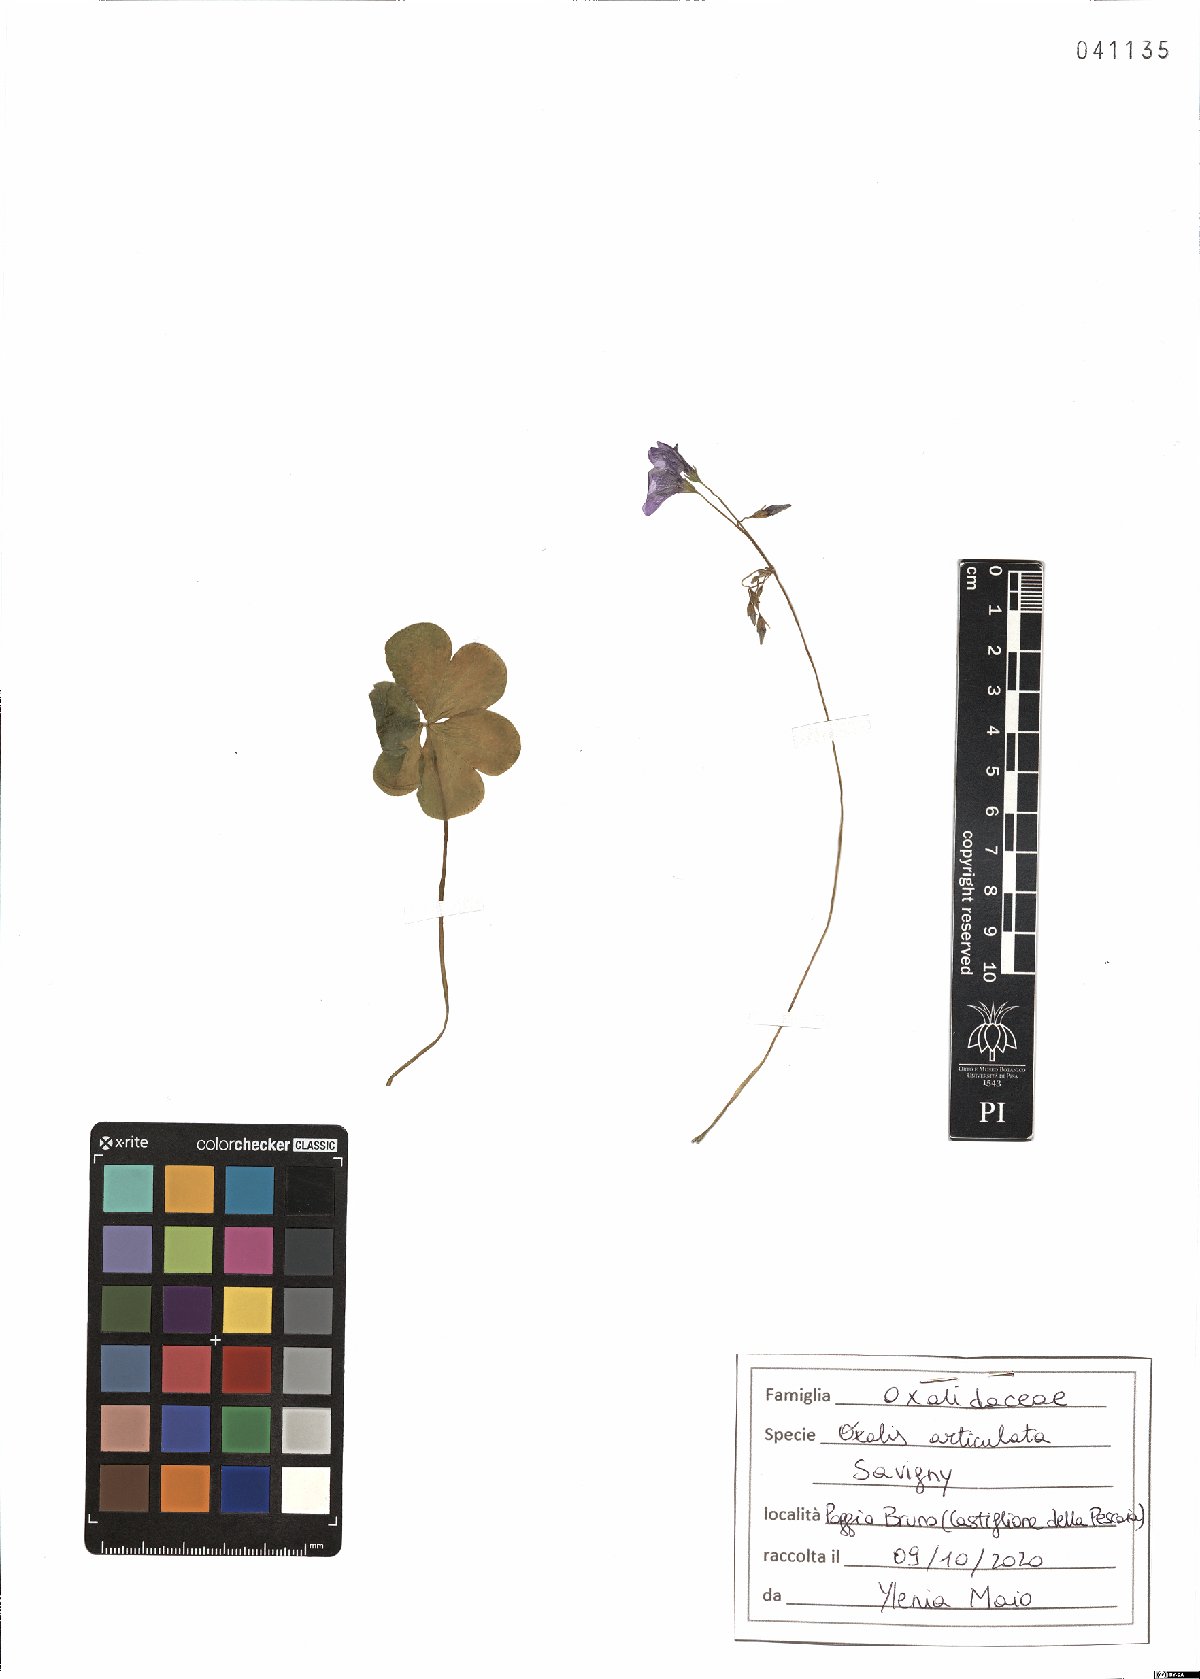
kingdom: Plantae
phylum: Tracheophyta
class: Magnoliopsida
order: Oxalidales
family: Oxalidaceae
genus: Oxalis
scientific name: Oxalis articulata
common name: Pink-sorrel
